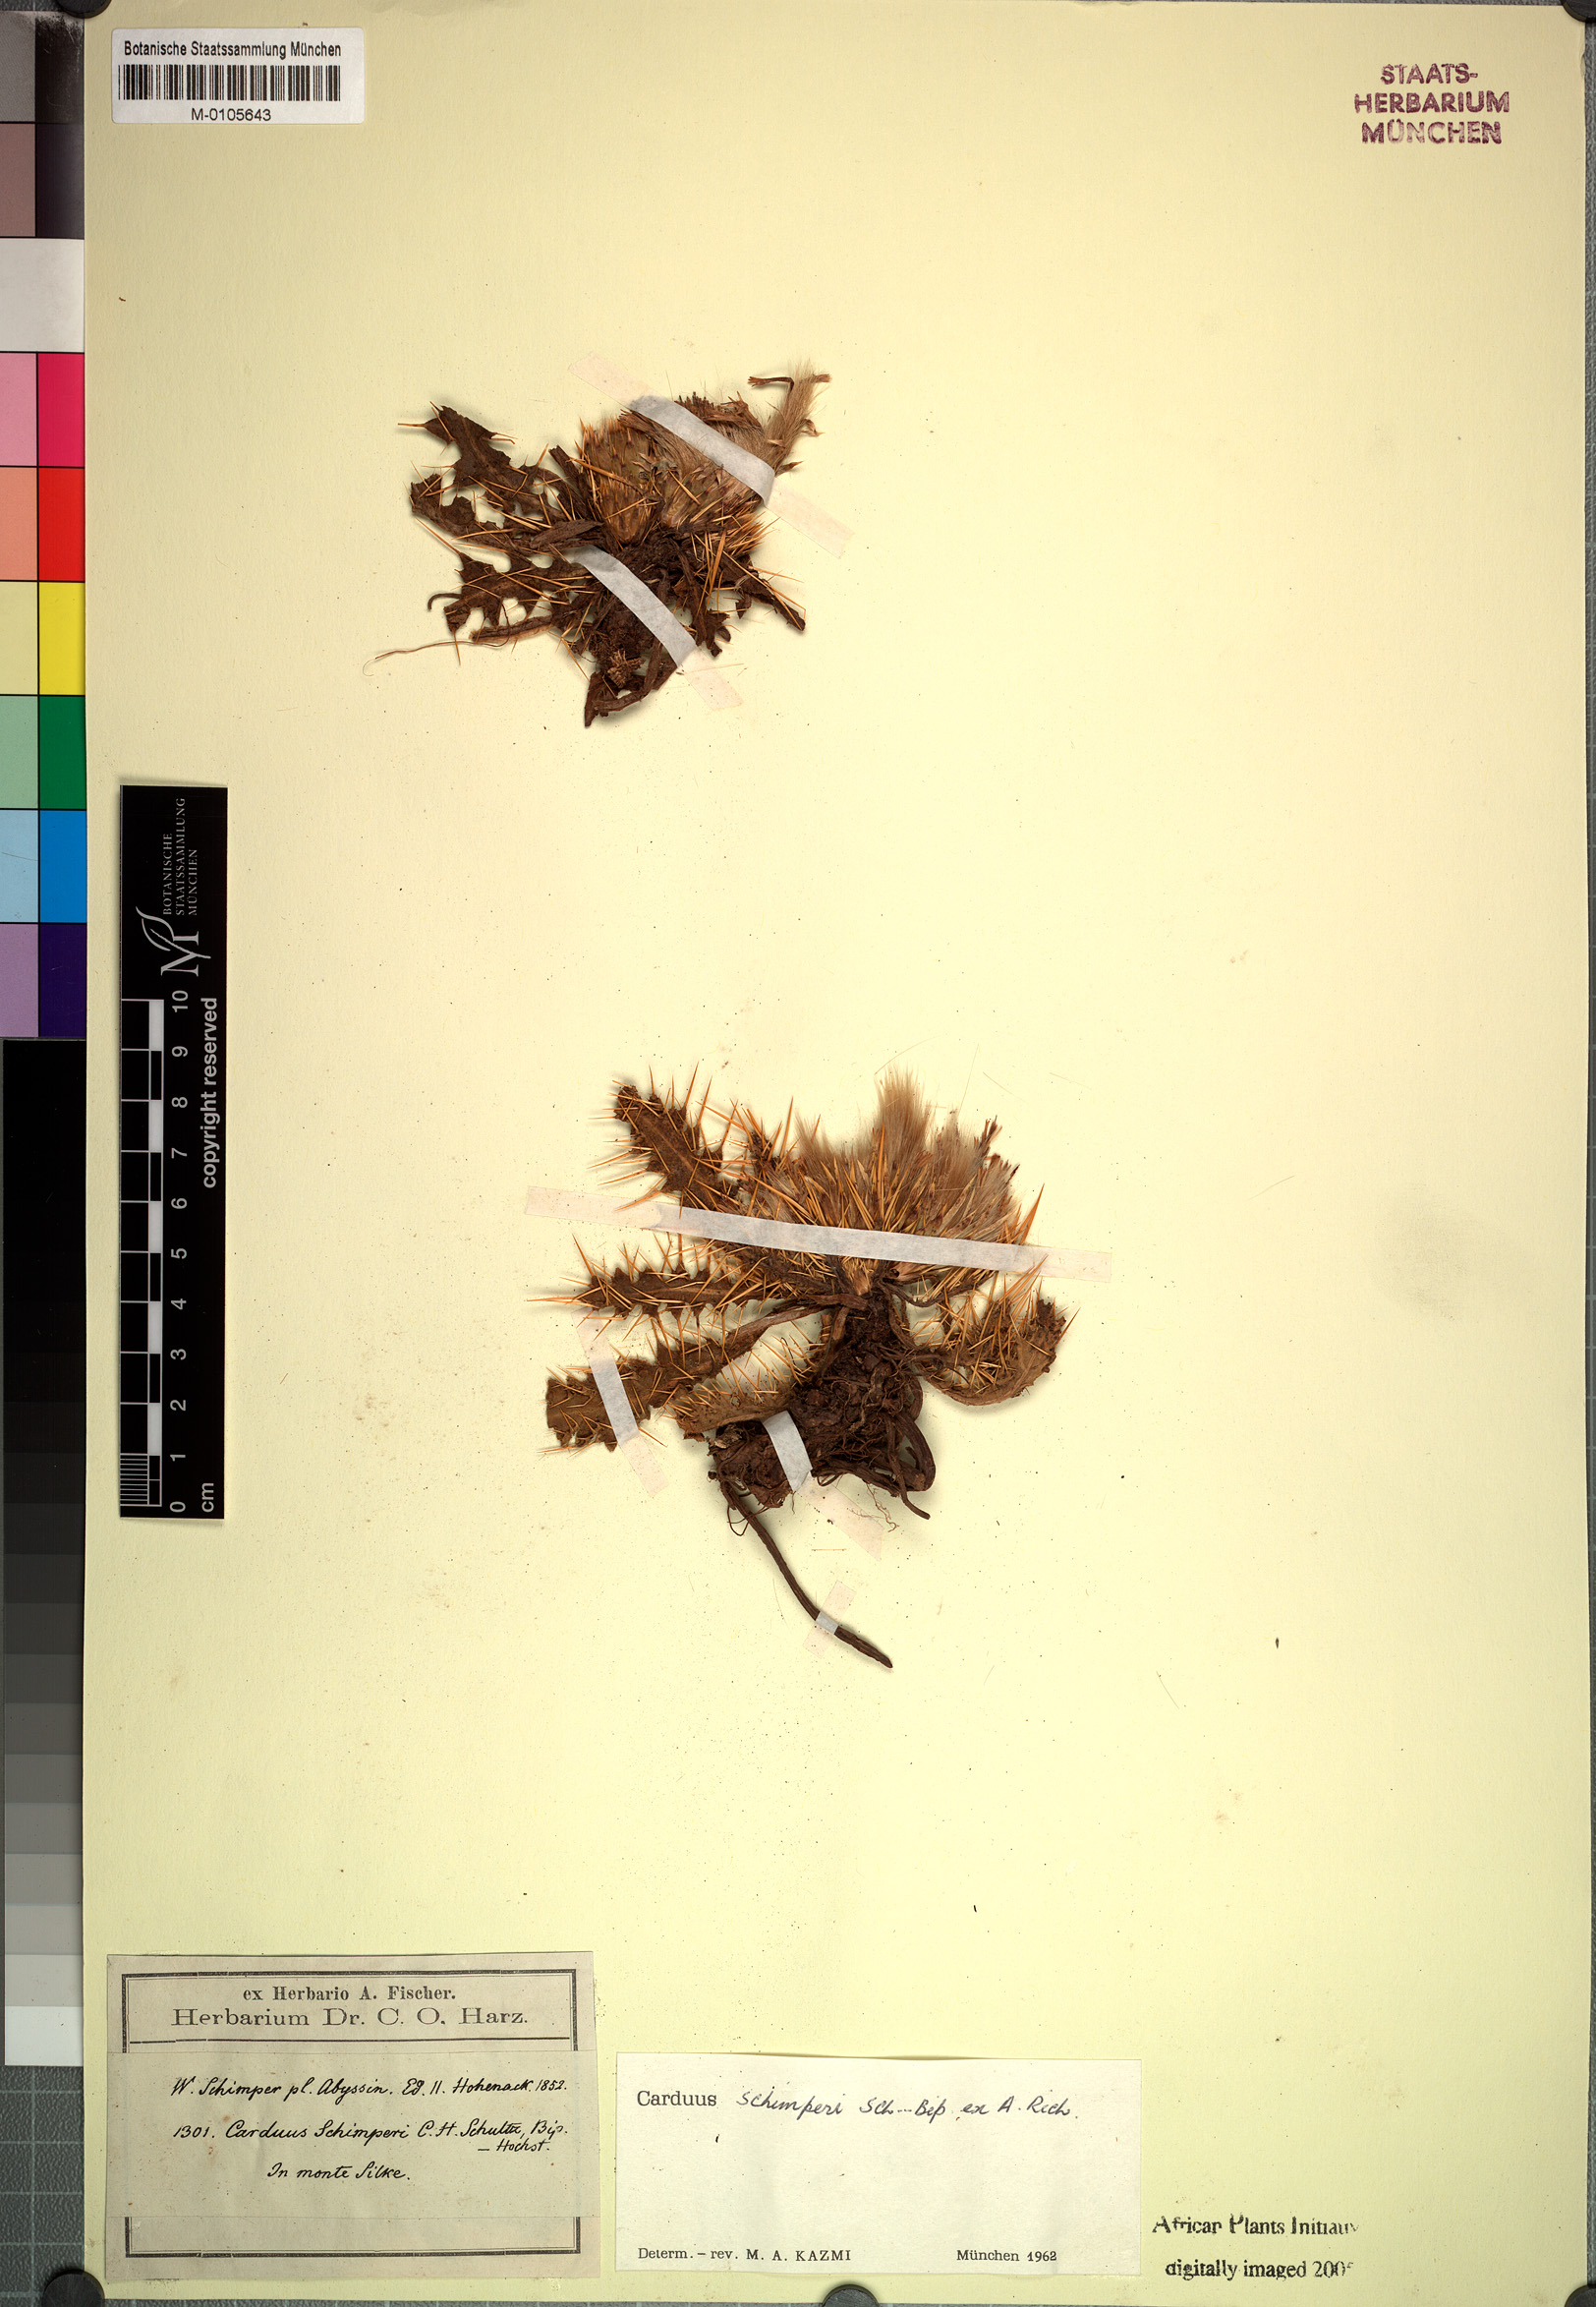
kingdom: Plantae
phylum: Tracheophyta
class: Magnoliopsida
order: Asterales
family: Asteraceae
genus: Carduus
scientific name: Carduus schimperi
